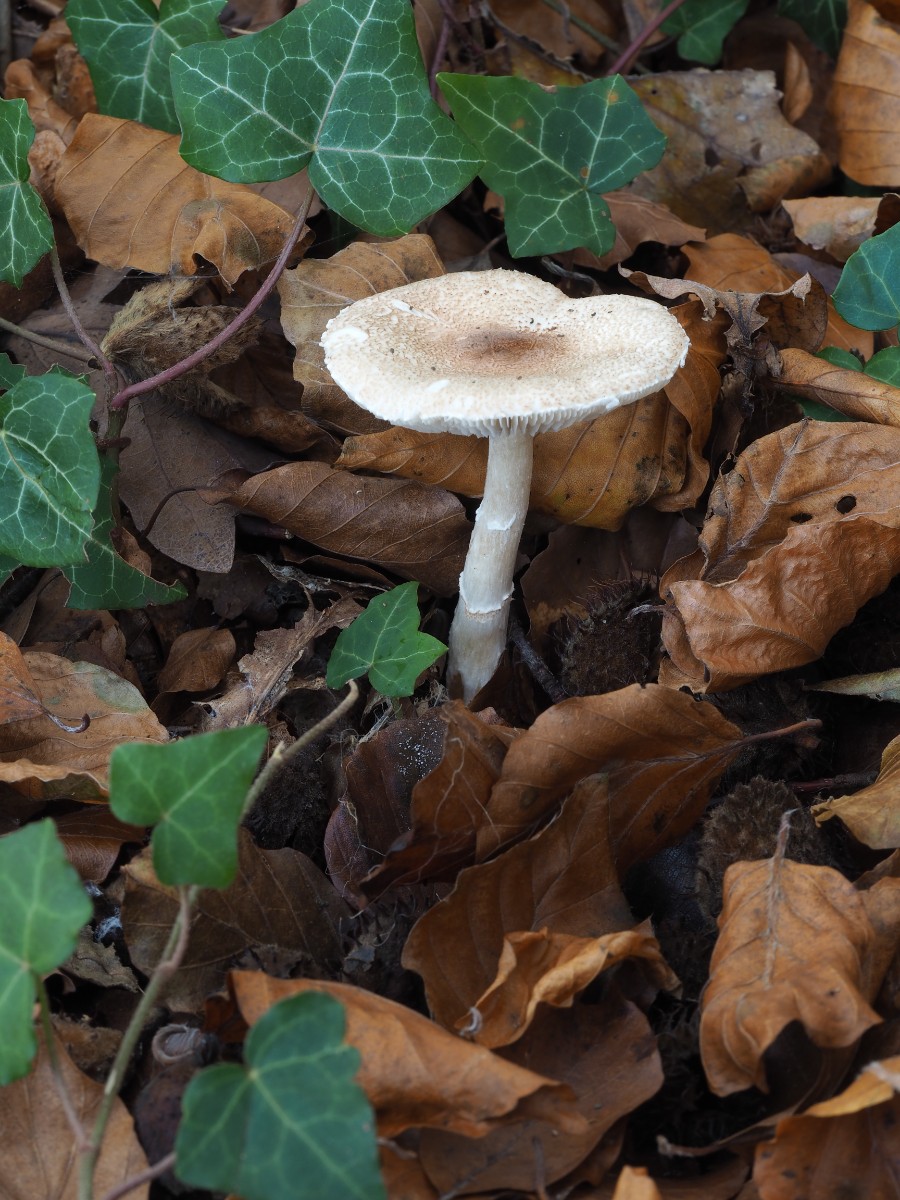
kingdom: Fungi
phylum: Basidiomycota
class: Agaricomycetes
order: Agaricales
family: Agaricaceae
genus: Lepiota
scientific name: Lepiota subgracilis
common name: elegant parasolhat
